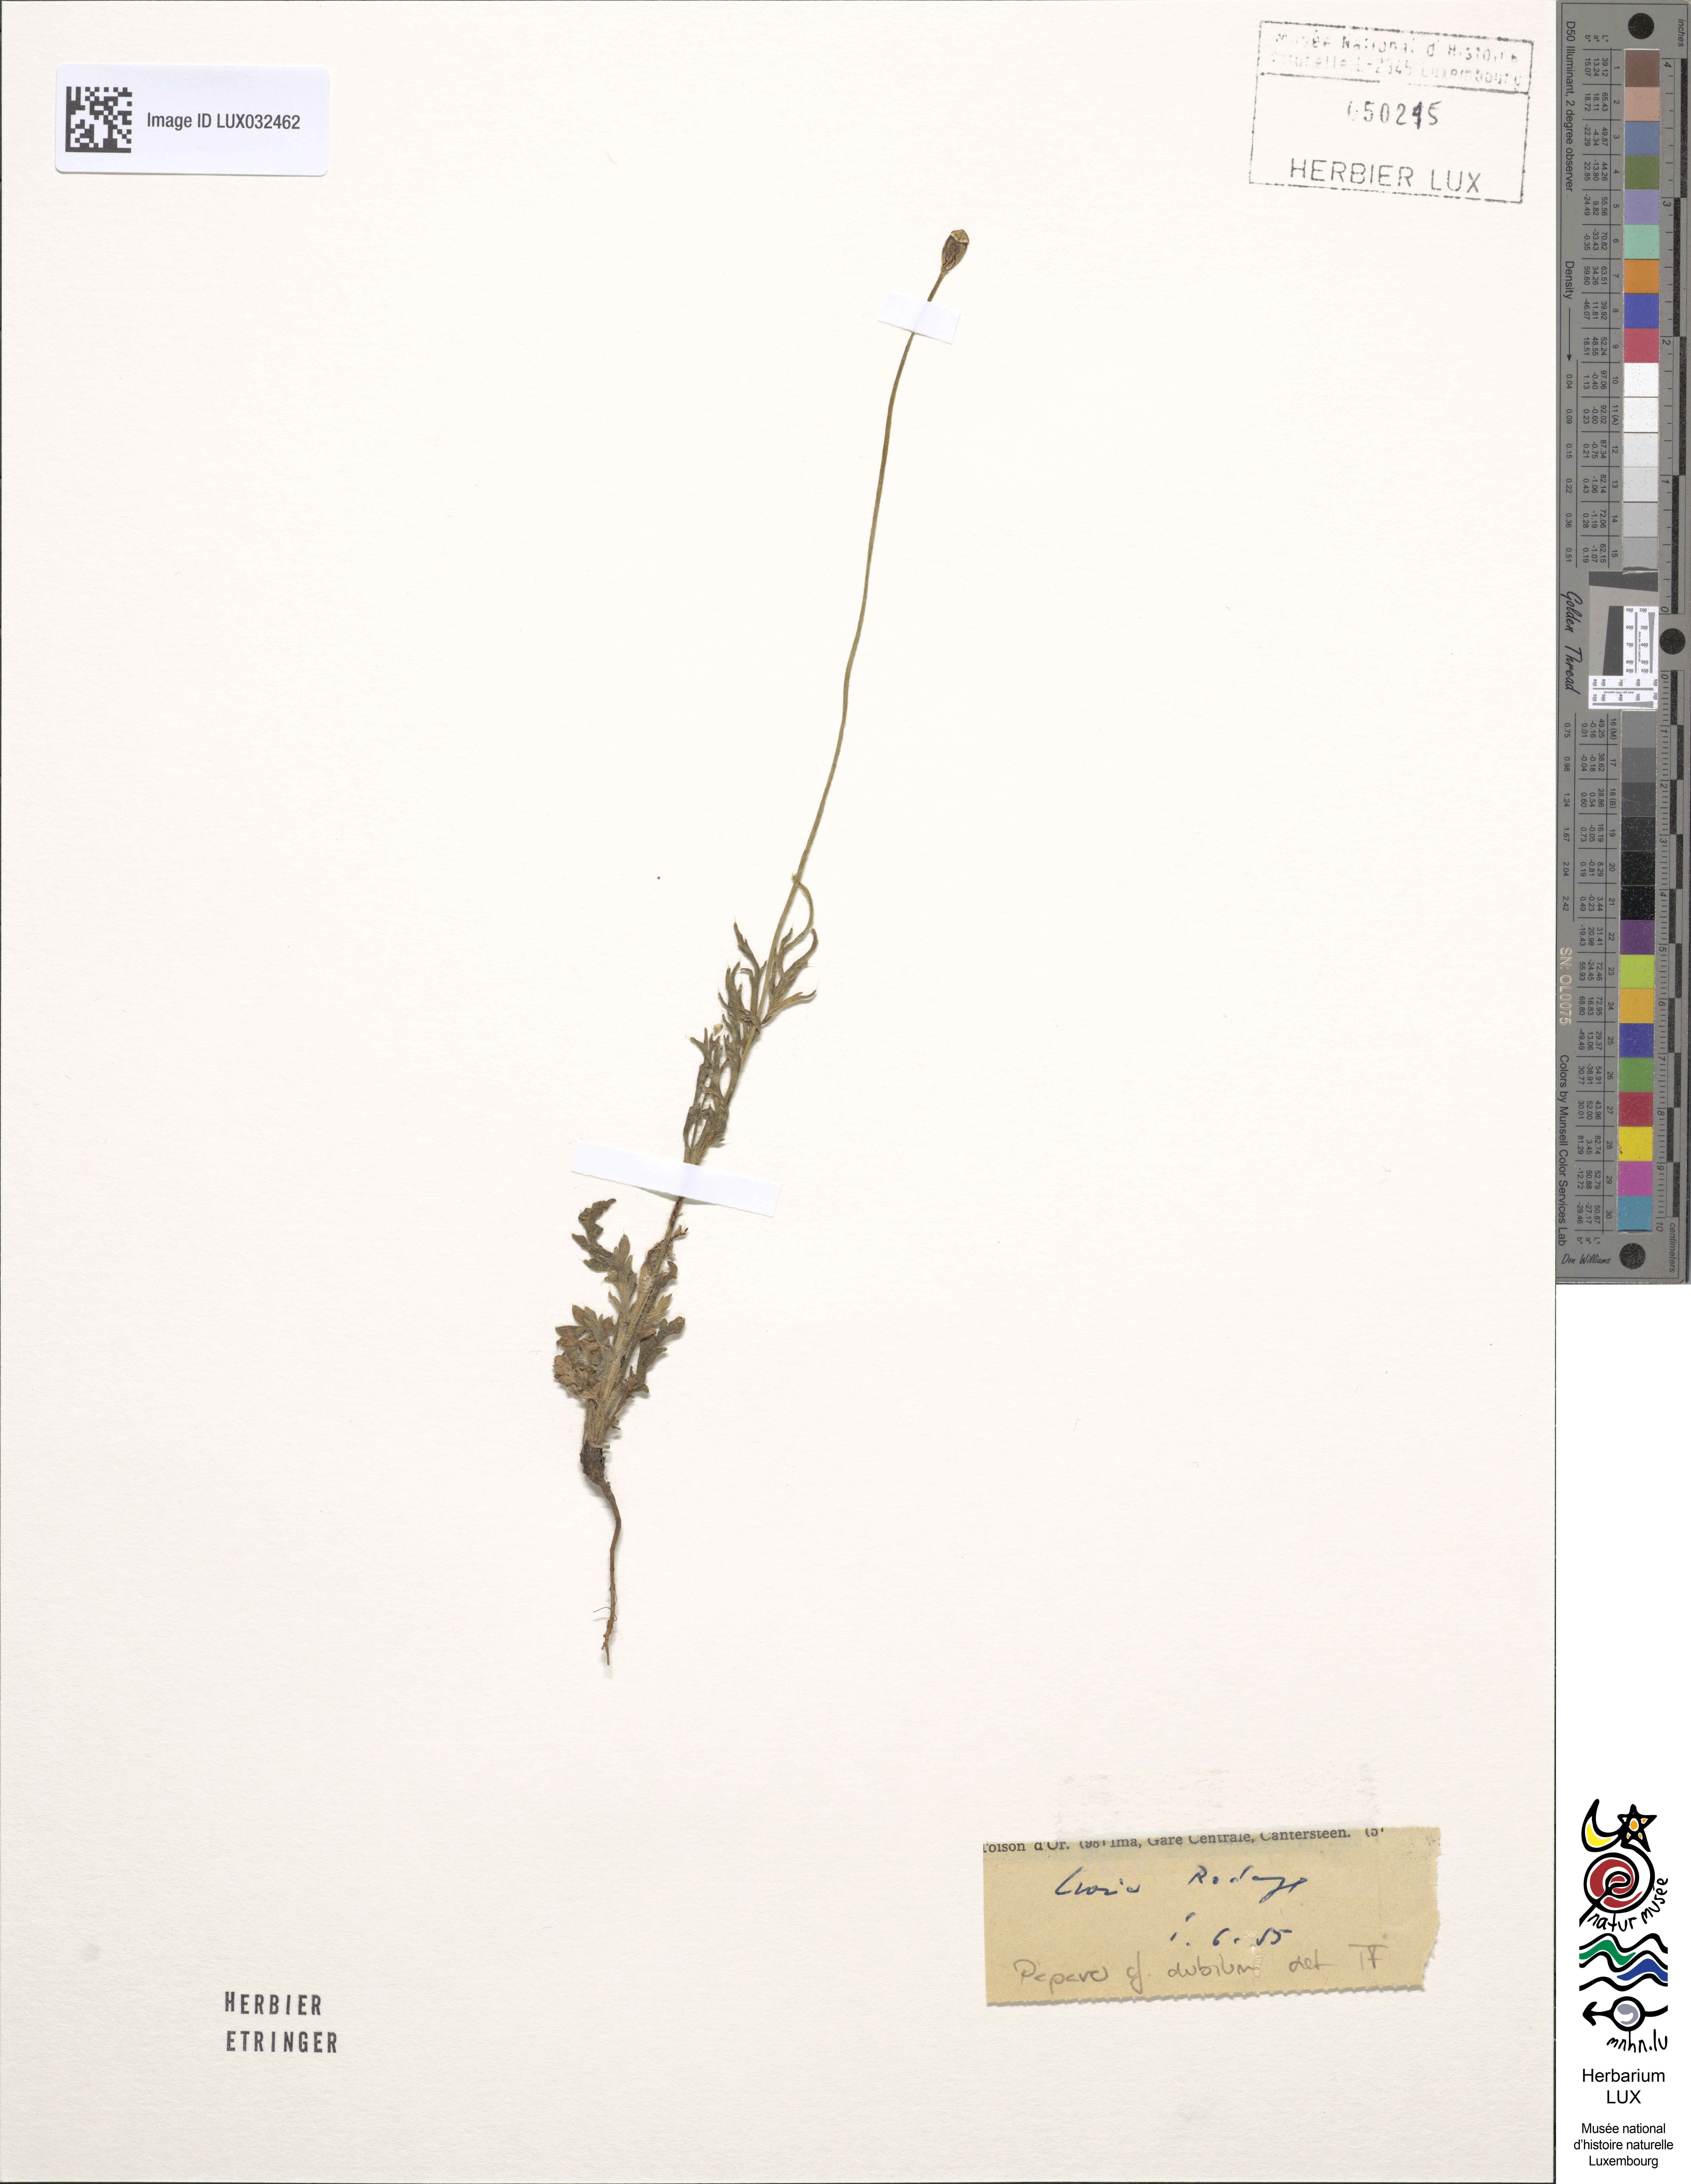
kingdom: Plantae
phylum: Tracheophyta
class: Magnoliopsida
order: Ranunculales
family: Papaveraceae
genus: Papaver
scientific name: Papaver dubium
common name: Long-headed poppy
